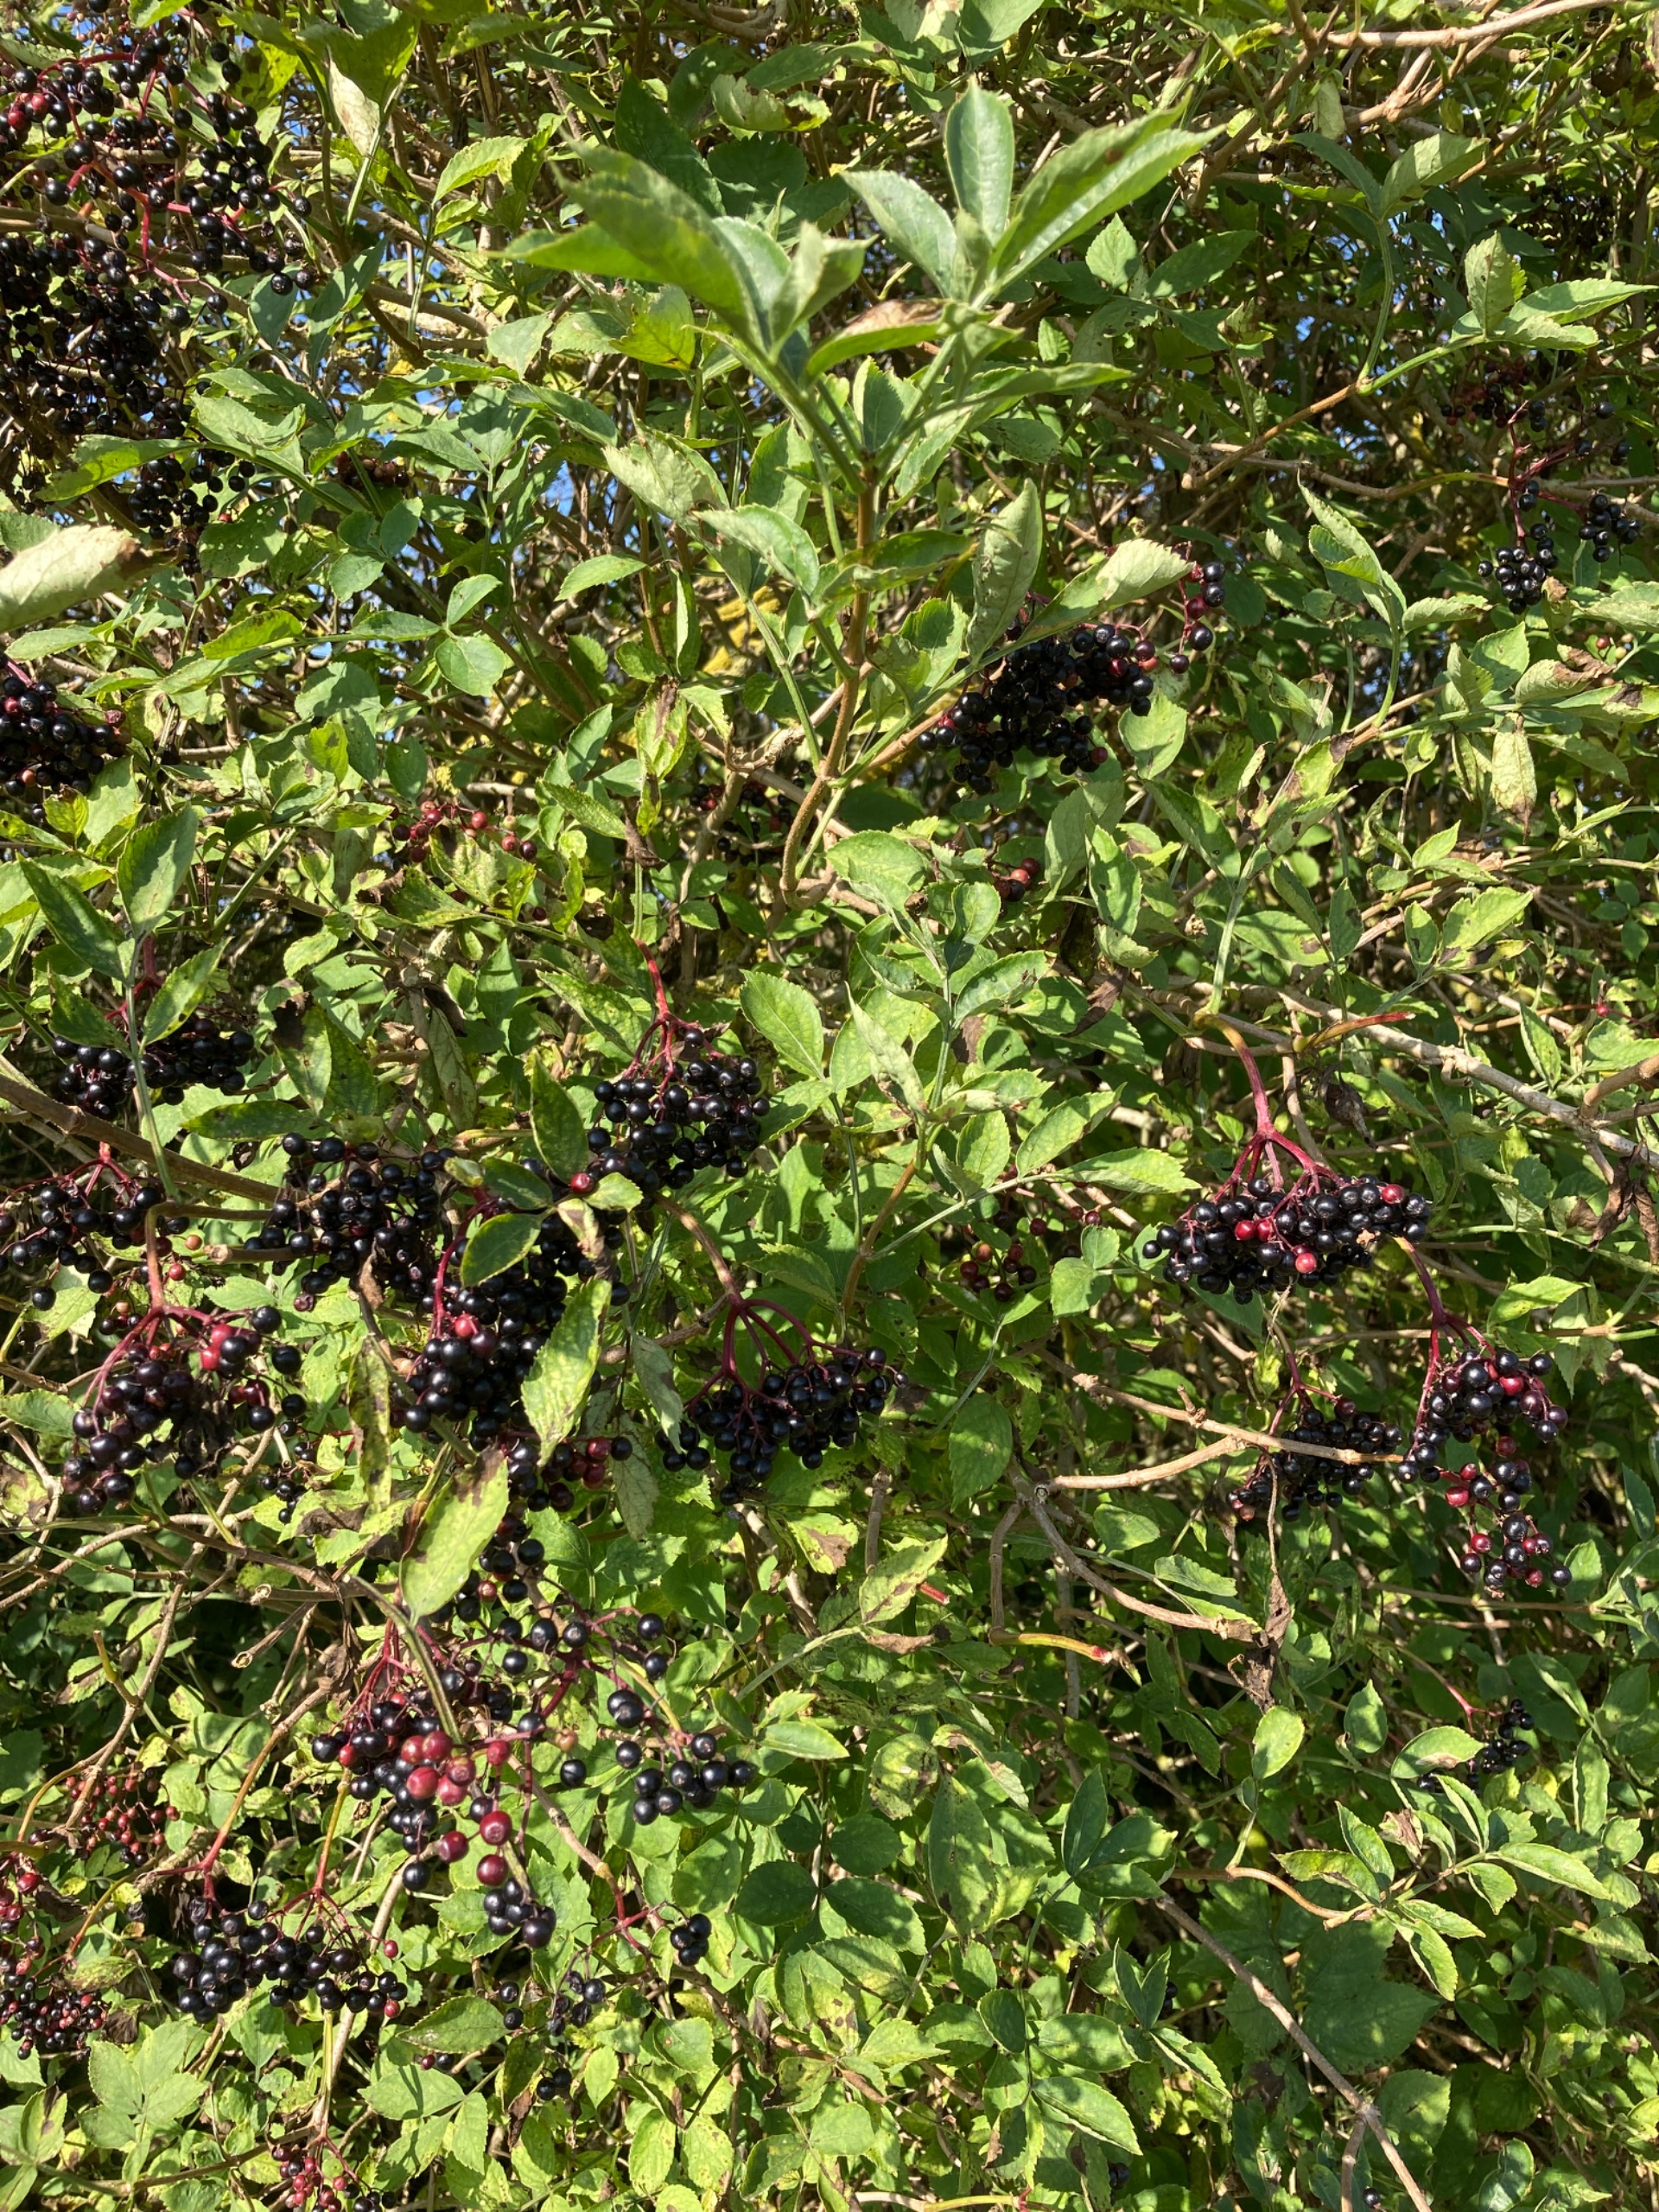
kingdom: Plantae
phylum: Tracheophyta
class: Magnoliopsida
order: Dipsacales
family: Viburnaceae
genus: Sambucus
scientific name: Sambucus nigra
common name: Almindelig hyld
